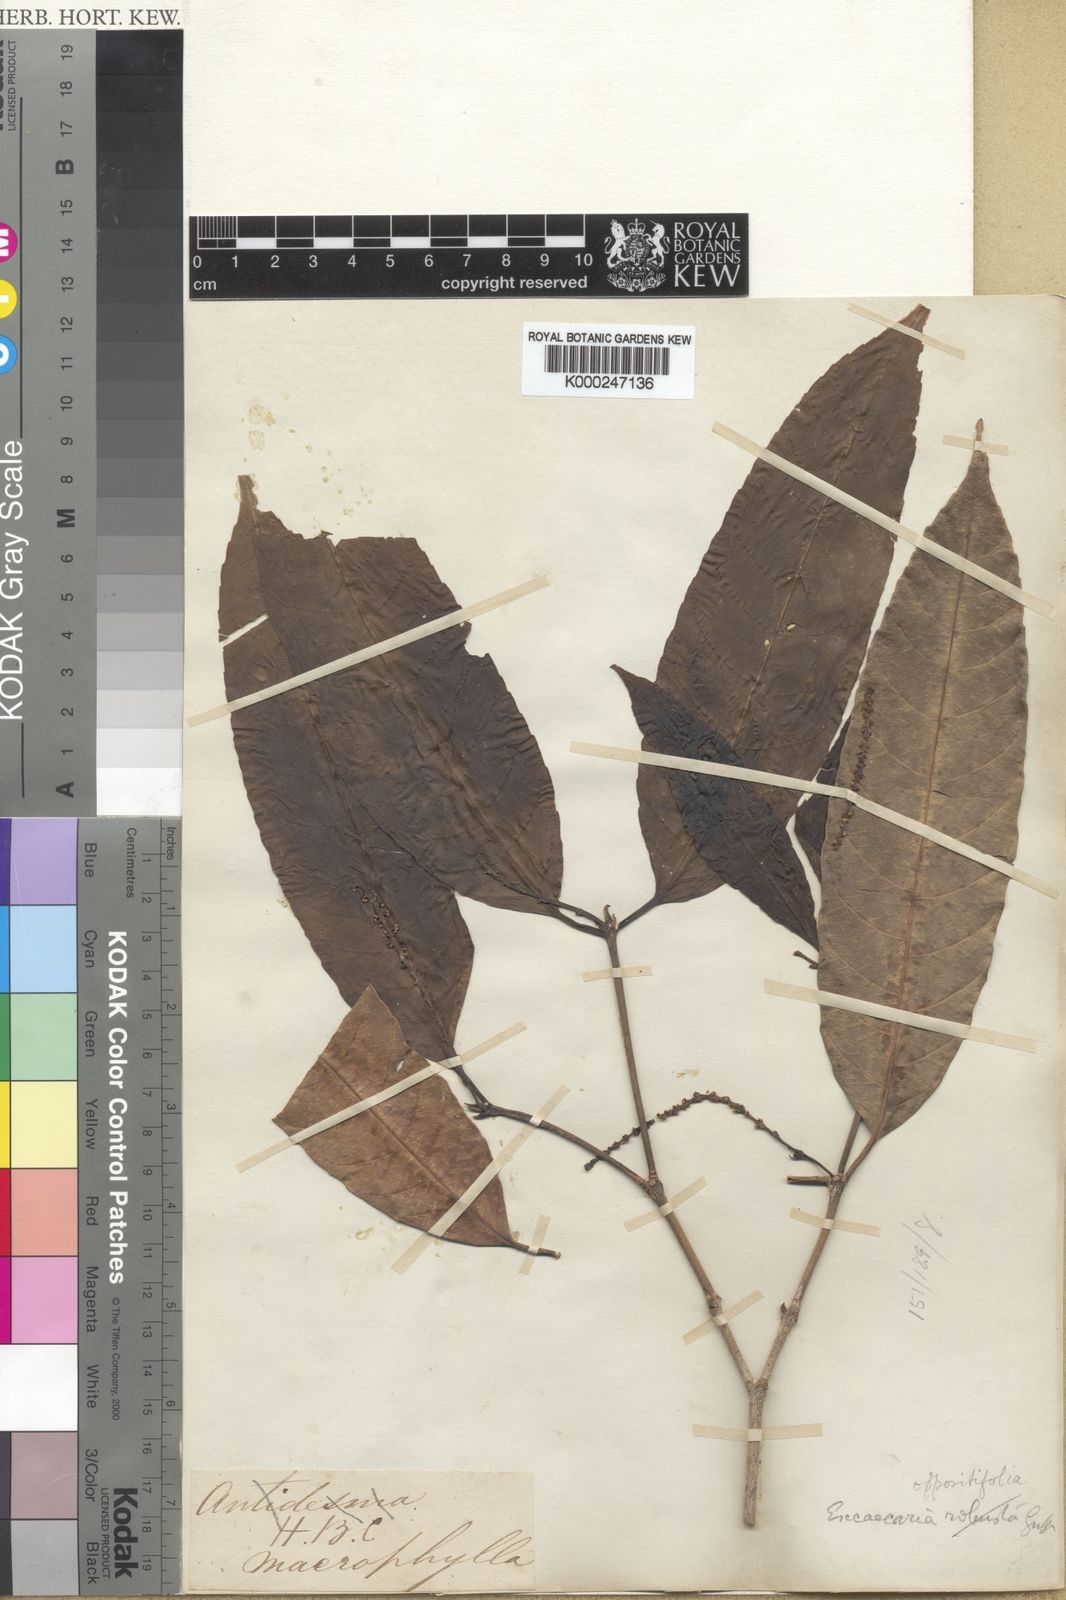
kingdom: Plantae
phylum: Tracheophyta
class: Magnoliopsida
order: Malpighiales
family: Euphorbiaceae
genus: Excoecaria
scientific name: Excoecaria oppositifolia
